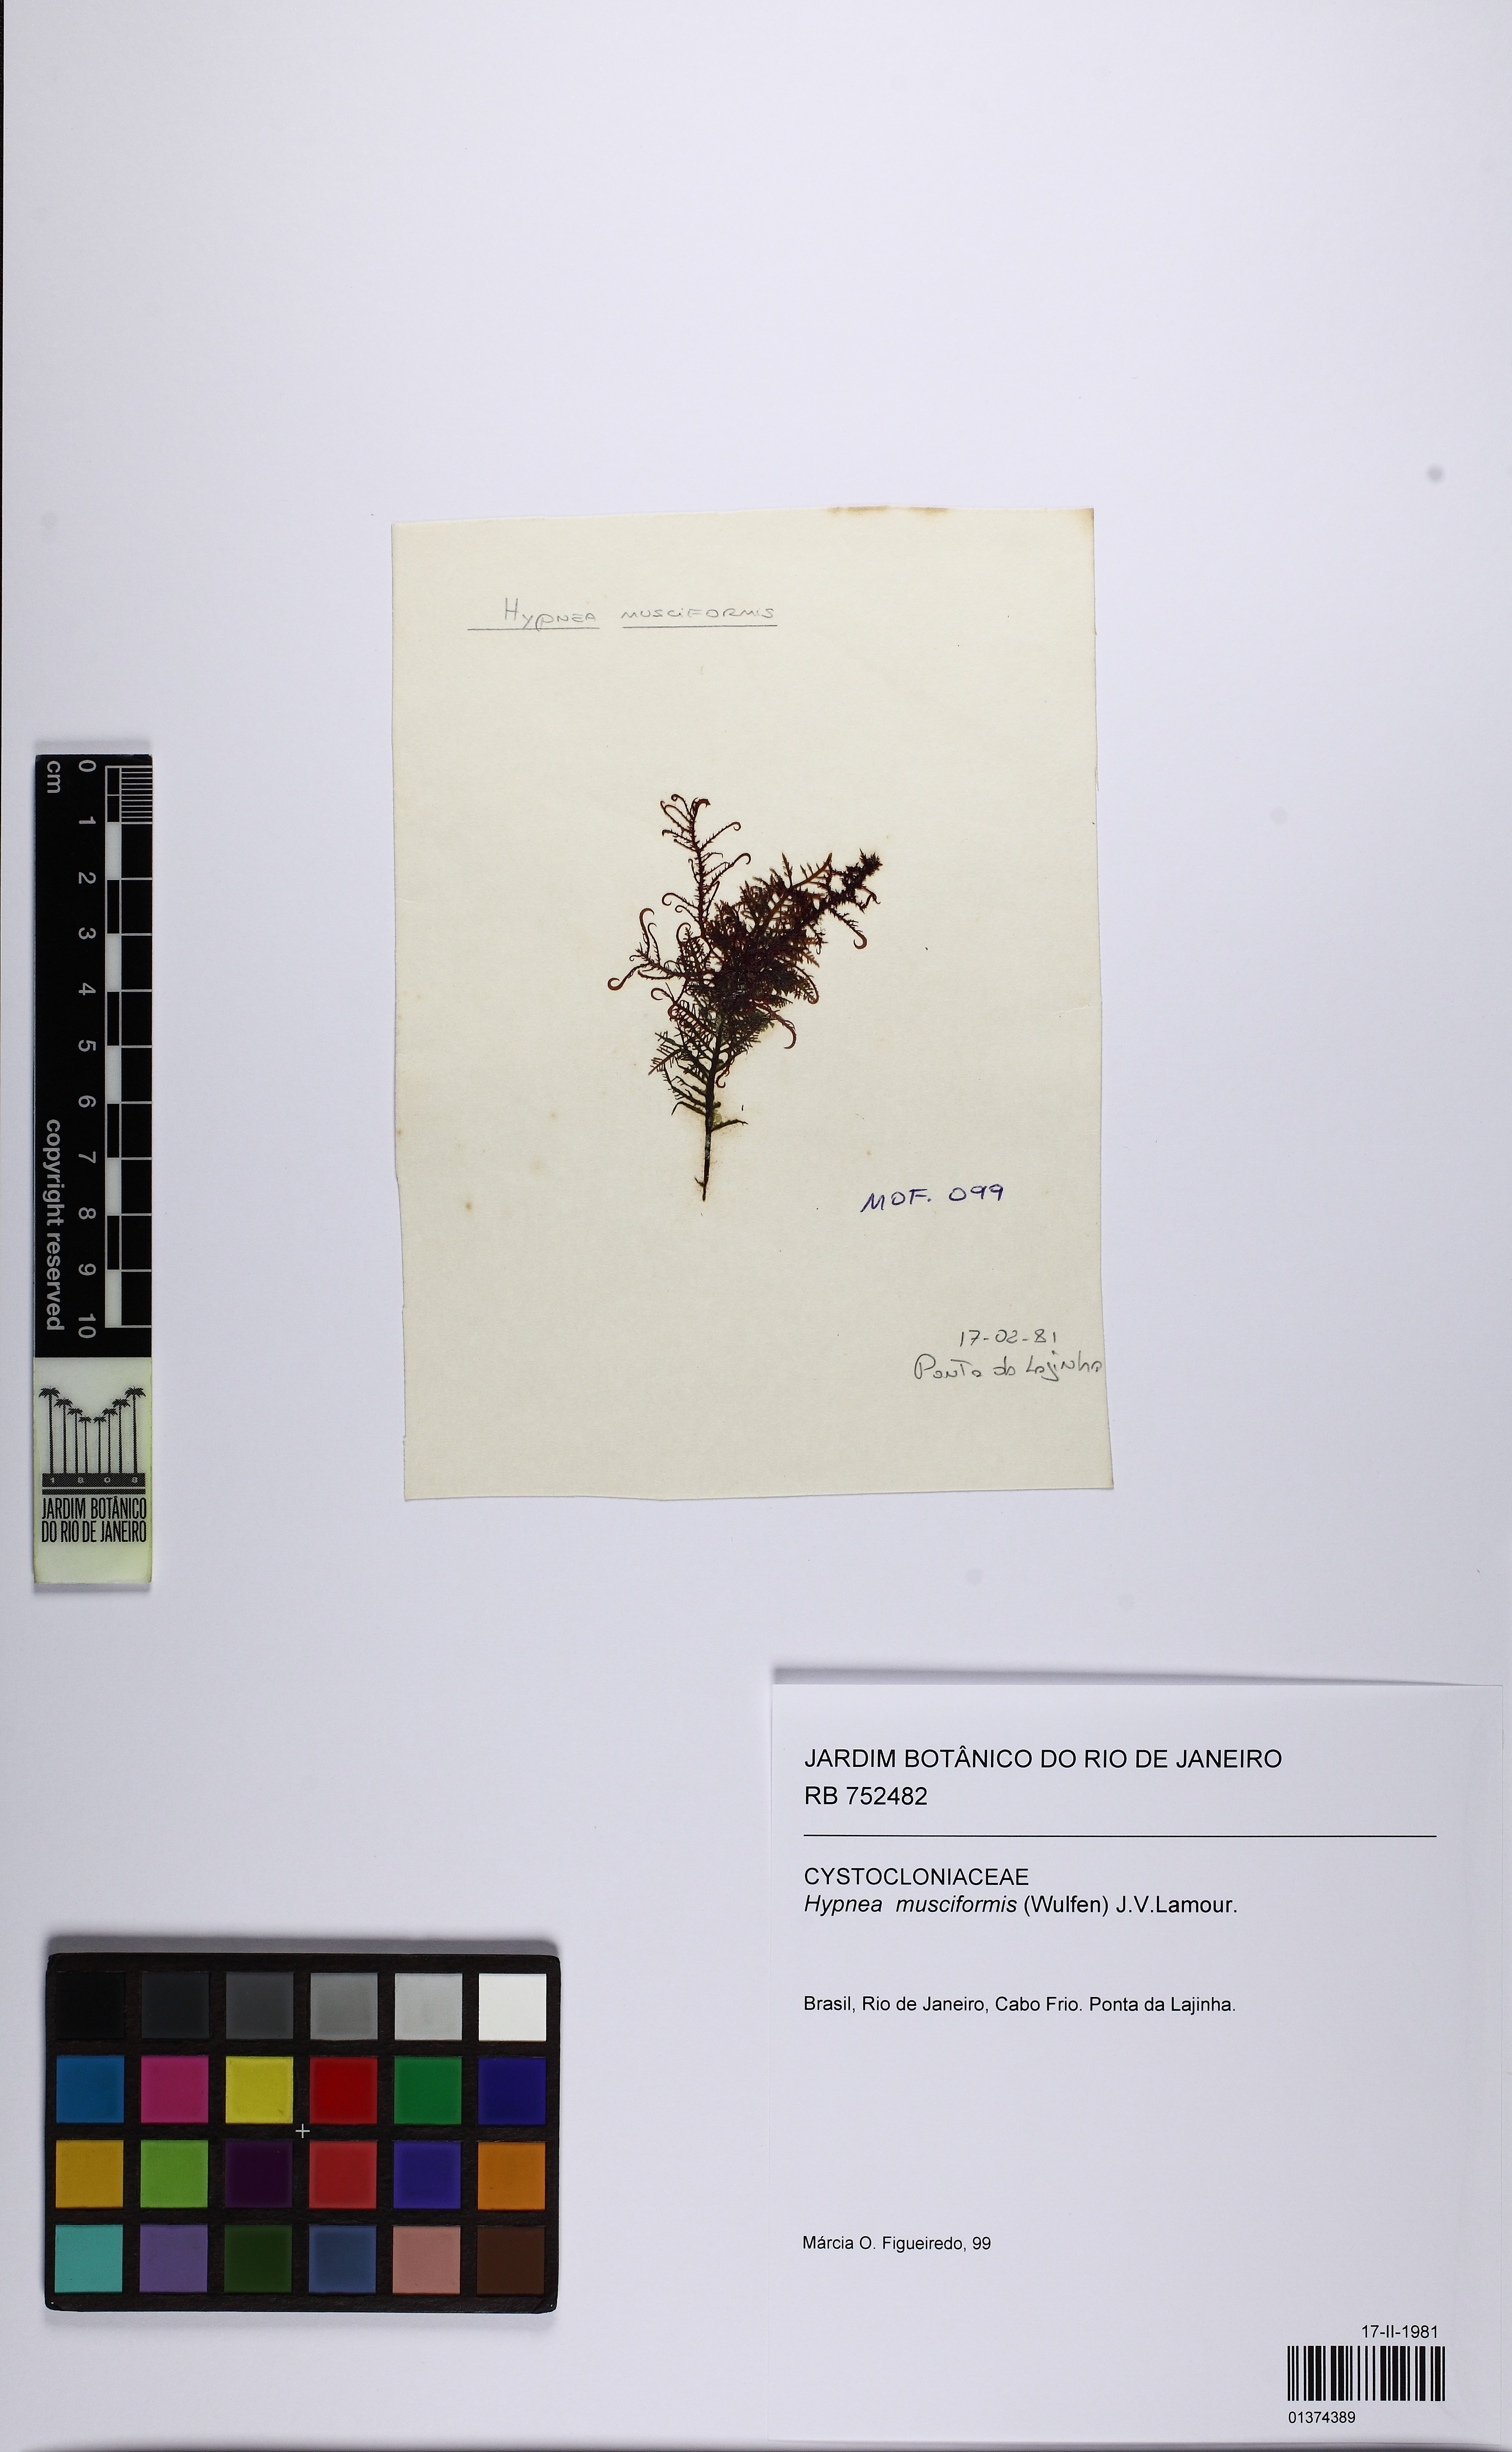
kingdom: Plantae
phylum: Rhodophyta
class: Florideophyceae
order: Gigartinales
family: Cystocloniaceae
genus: Hypnea
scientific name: Hypnea musciformis
